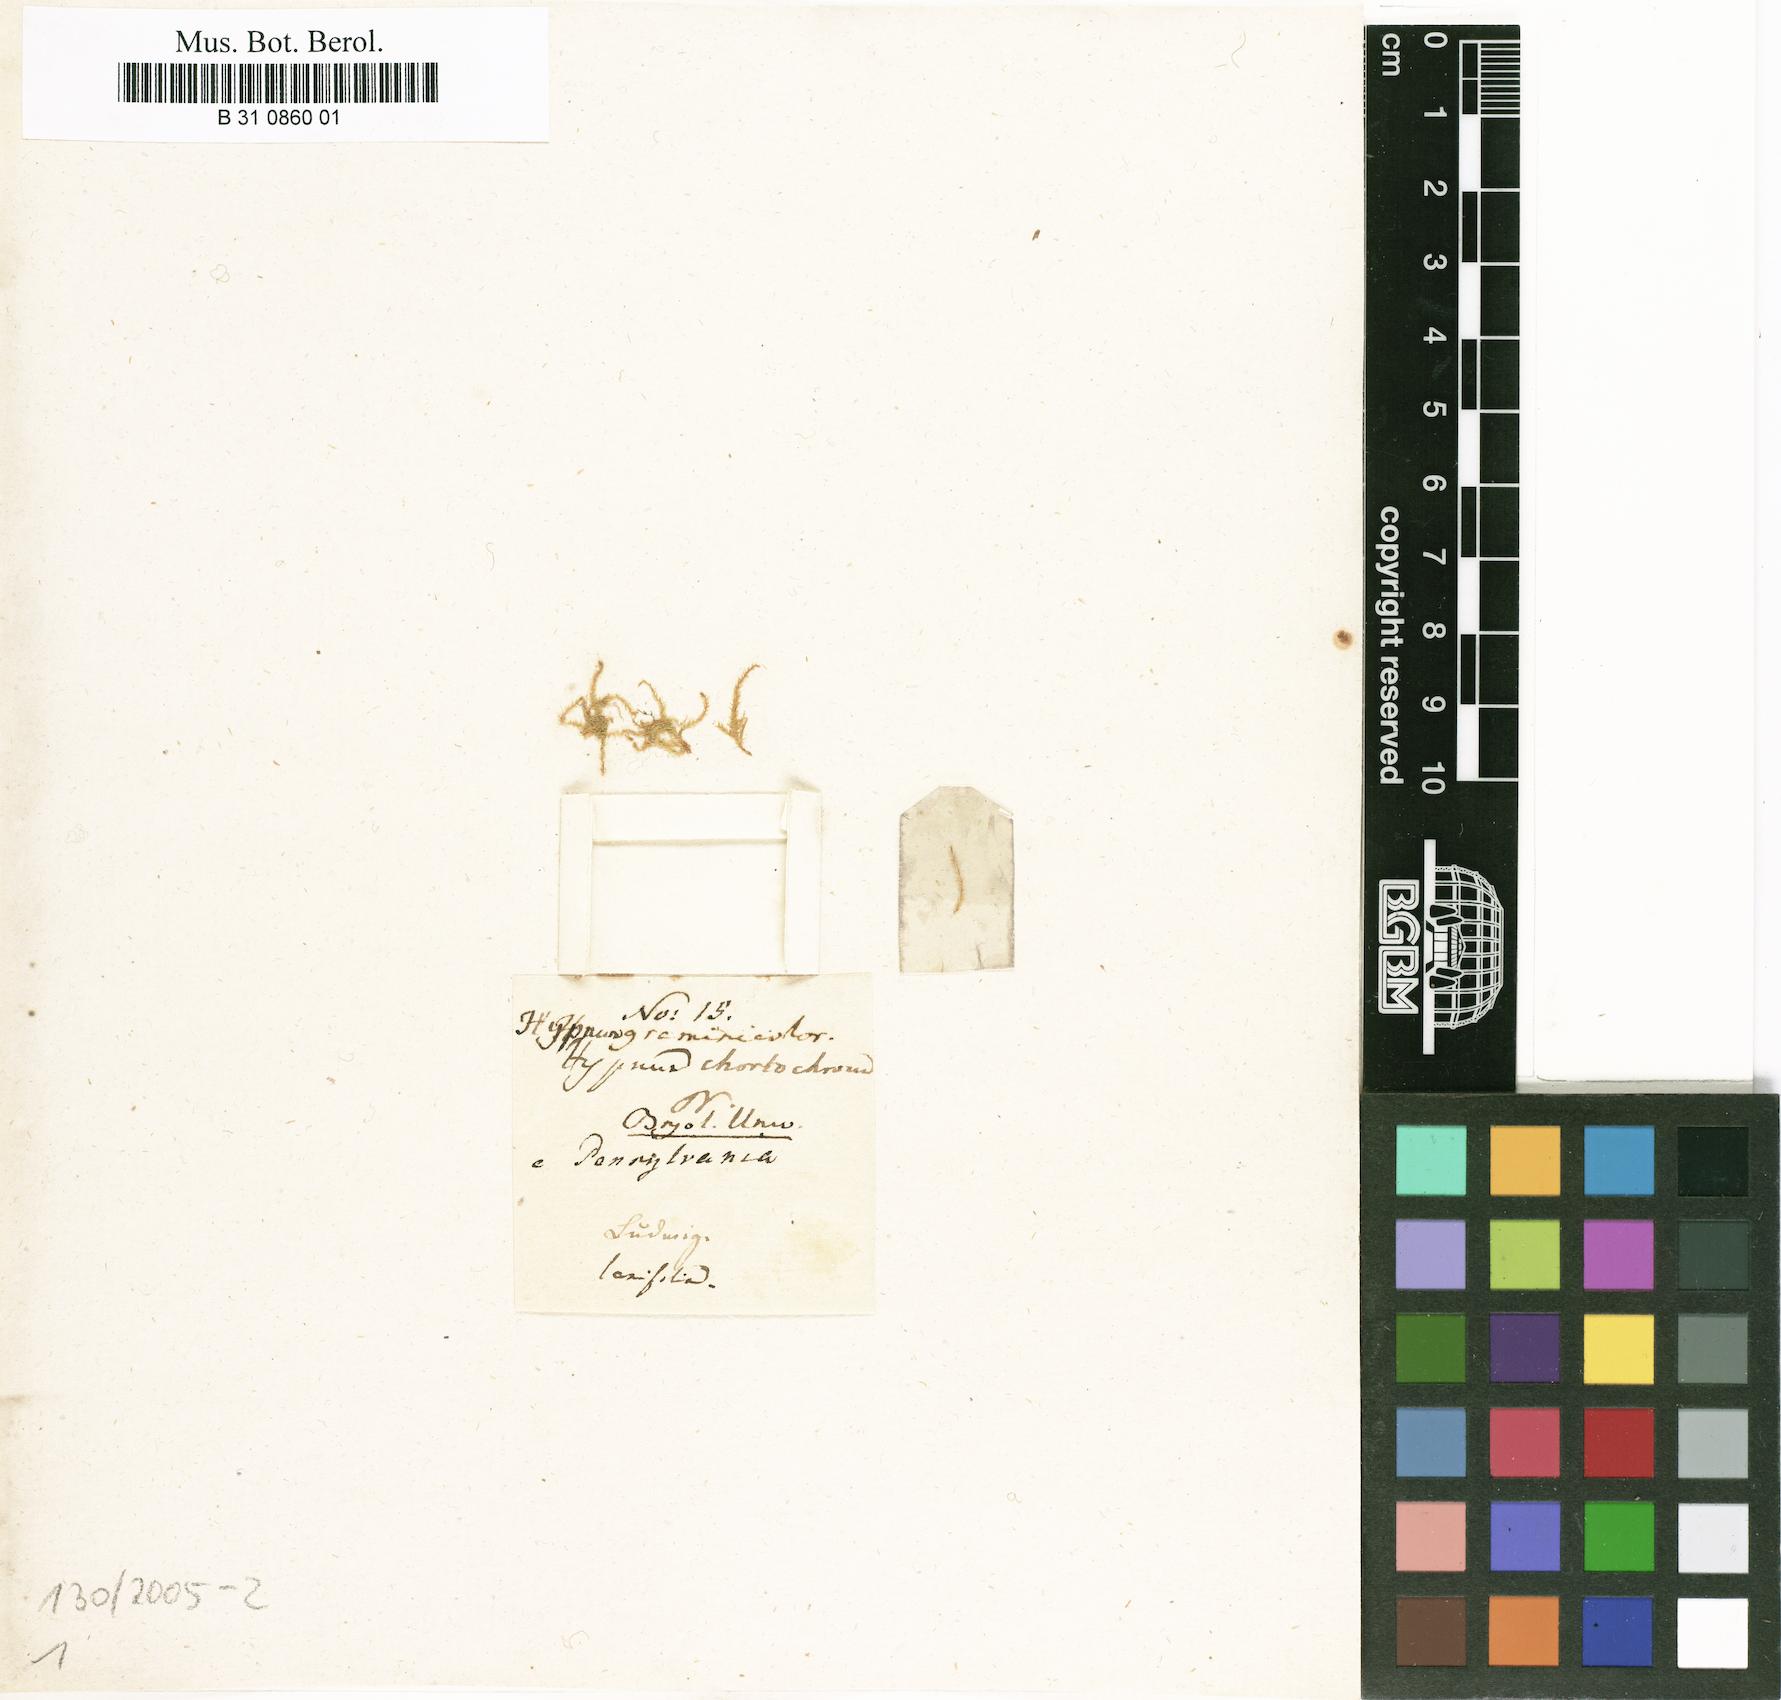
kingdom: Plantae
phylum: Bryophyta
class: Bryopsida
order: Hypnales
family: Brachytheciaceae
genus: Koponeniella
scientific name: Koponeniella graminicolor
